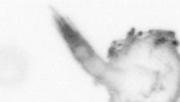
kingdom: Animalia
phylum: Annelida
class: Polychaeta
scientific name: Polychaeta
